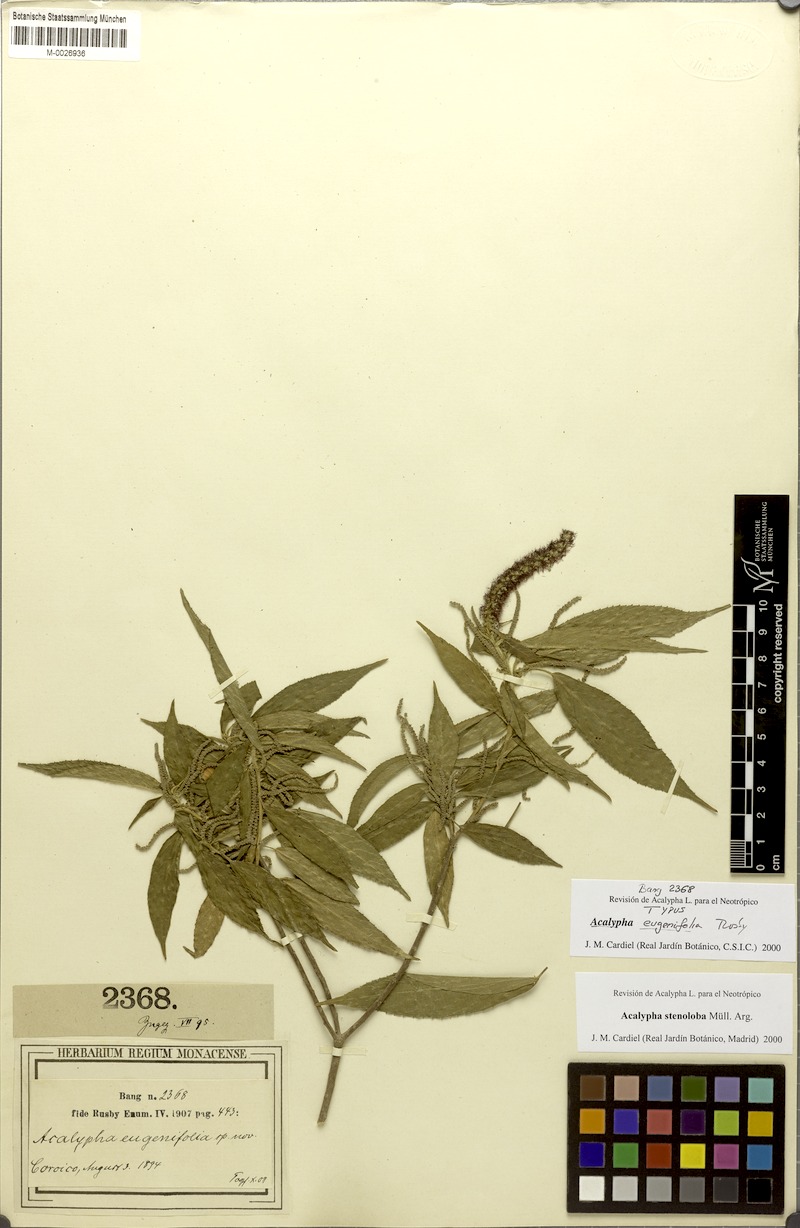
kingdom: Plantae
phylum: Tracheophyta
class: Magnoliopsida
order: Malpighiales
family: Euphorbiaceae
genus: Acalypha
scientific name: Acalypha stenoloba
